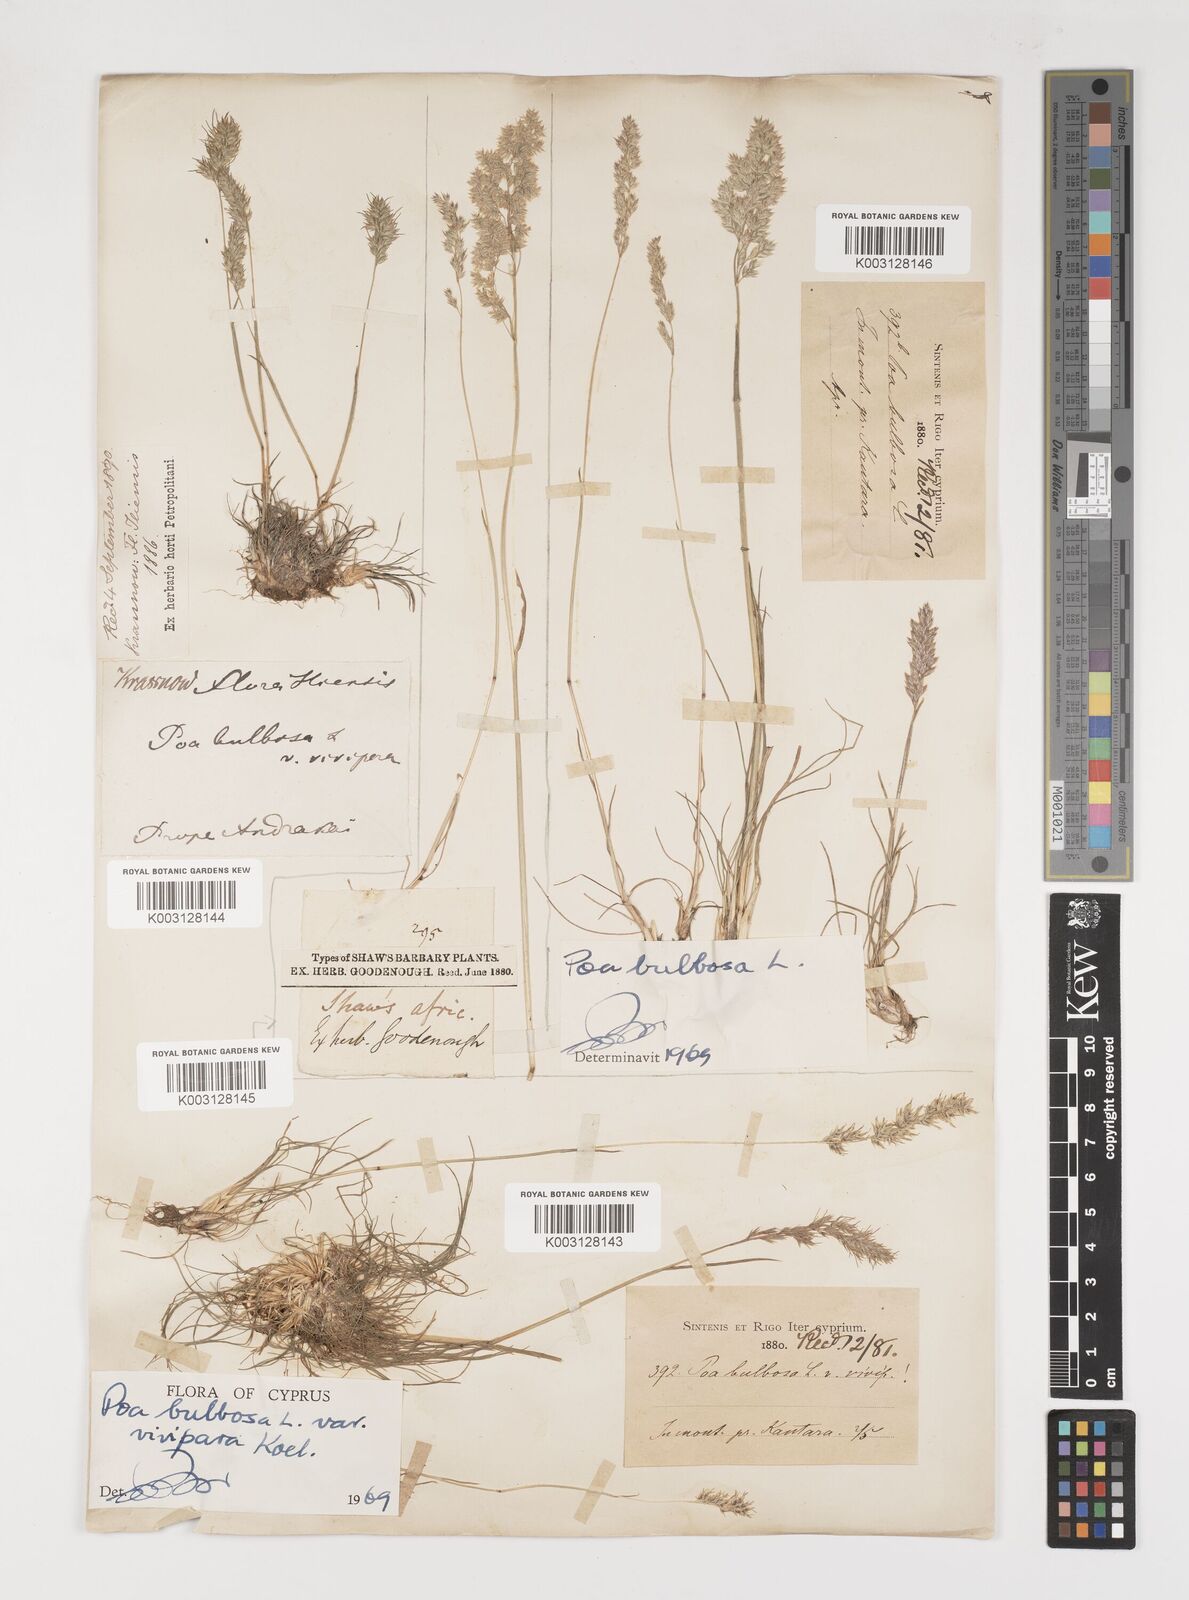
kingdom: Plantae
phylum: Tracheophyta
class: Liliopsida
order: Poales
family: Poaceae
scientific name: Poaceae
